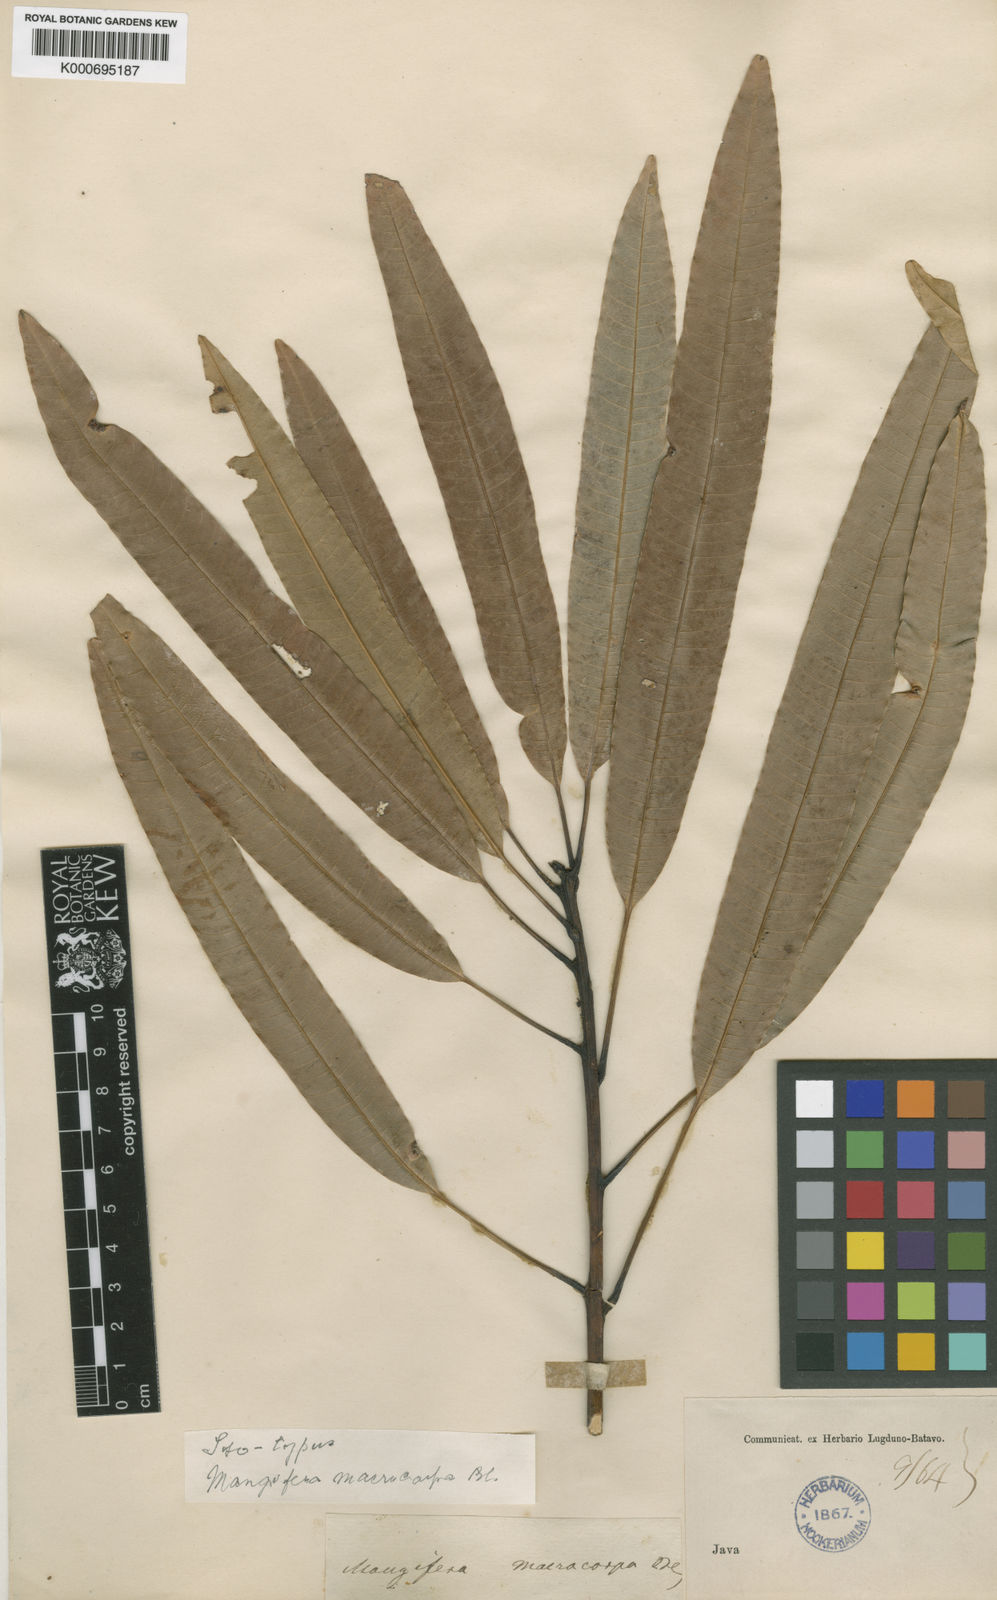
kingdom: Plantae
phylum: Tracheophyta
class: Magnoliopsida
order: Sapindales
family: Anacardiaceae
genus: Mangifera
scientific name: Mangifera macrocarpa
